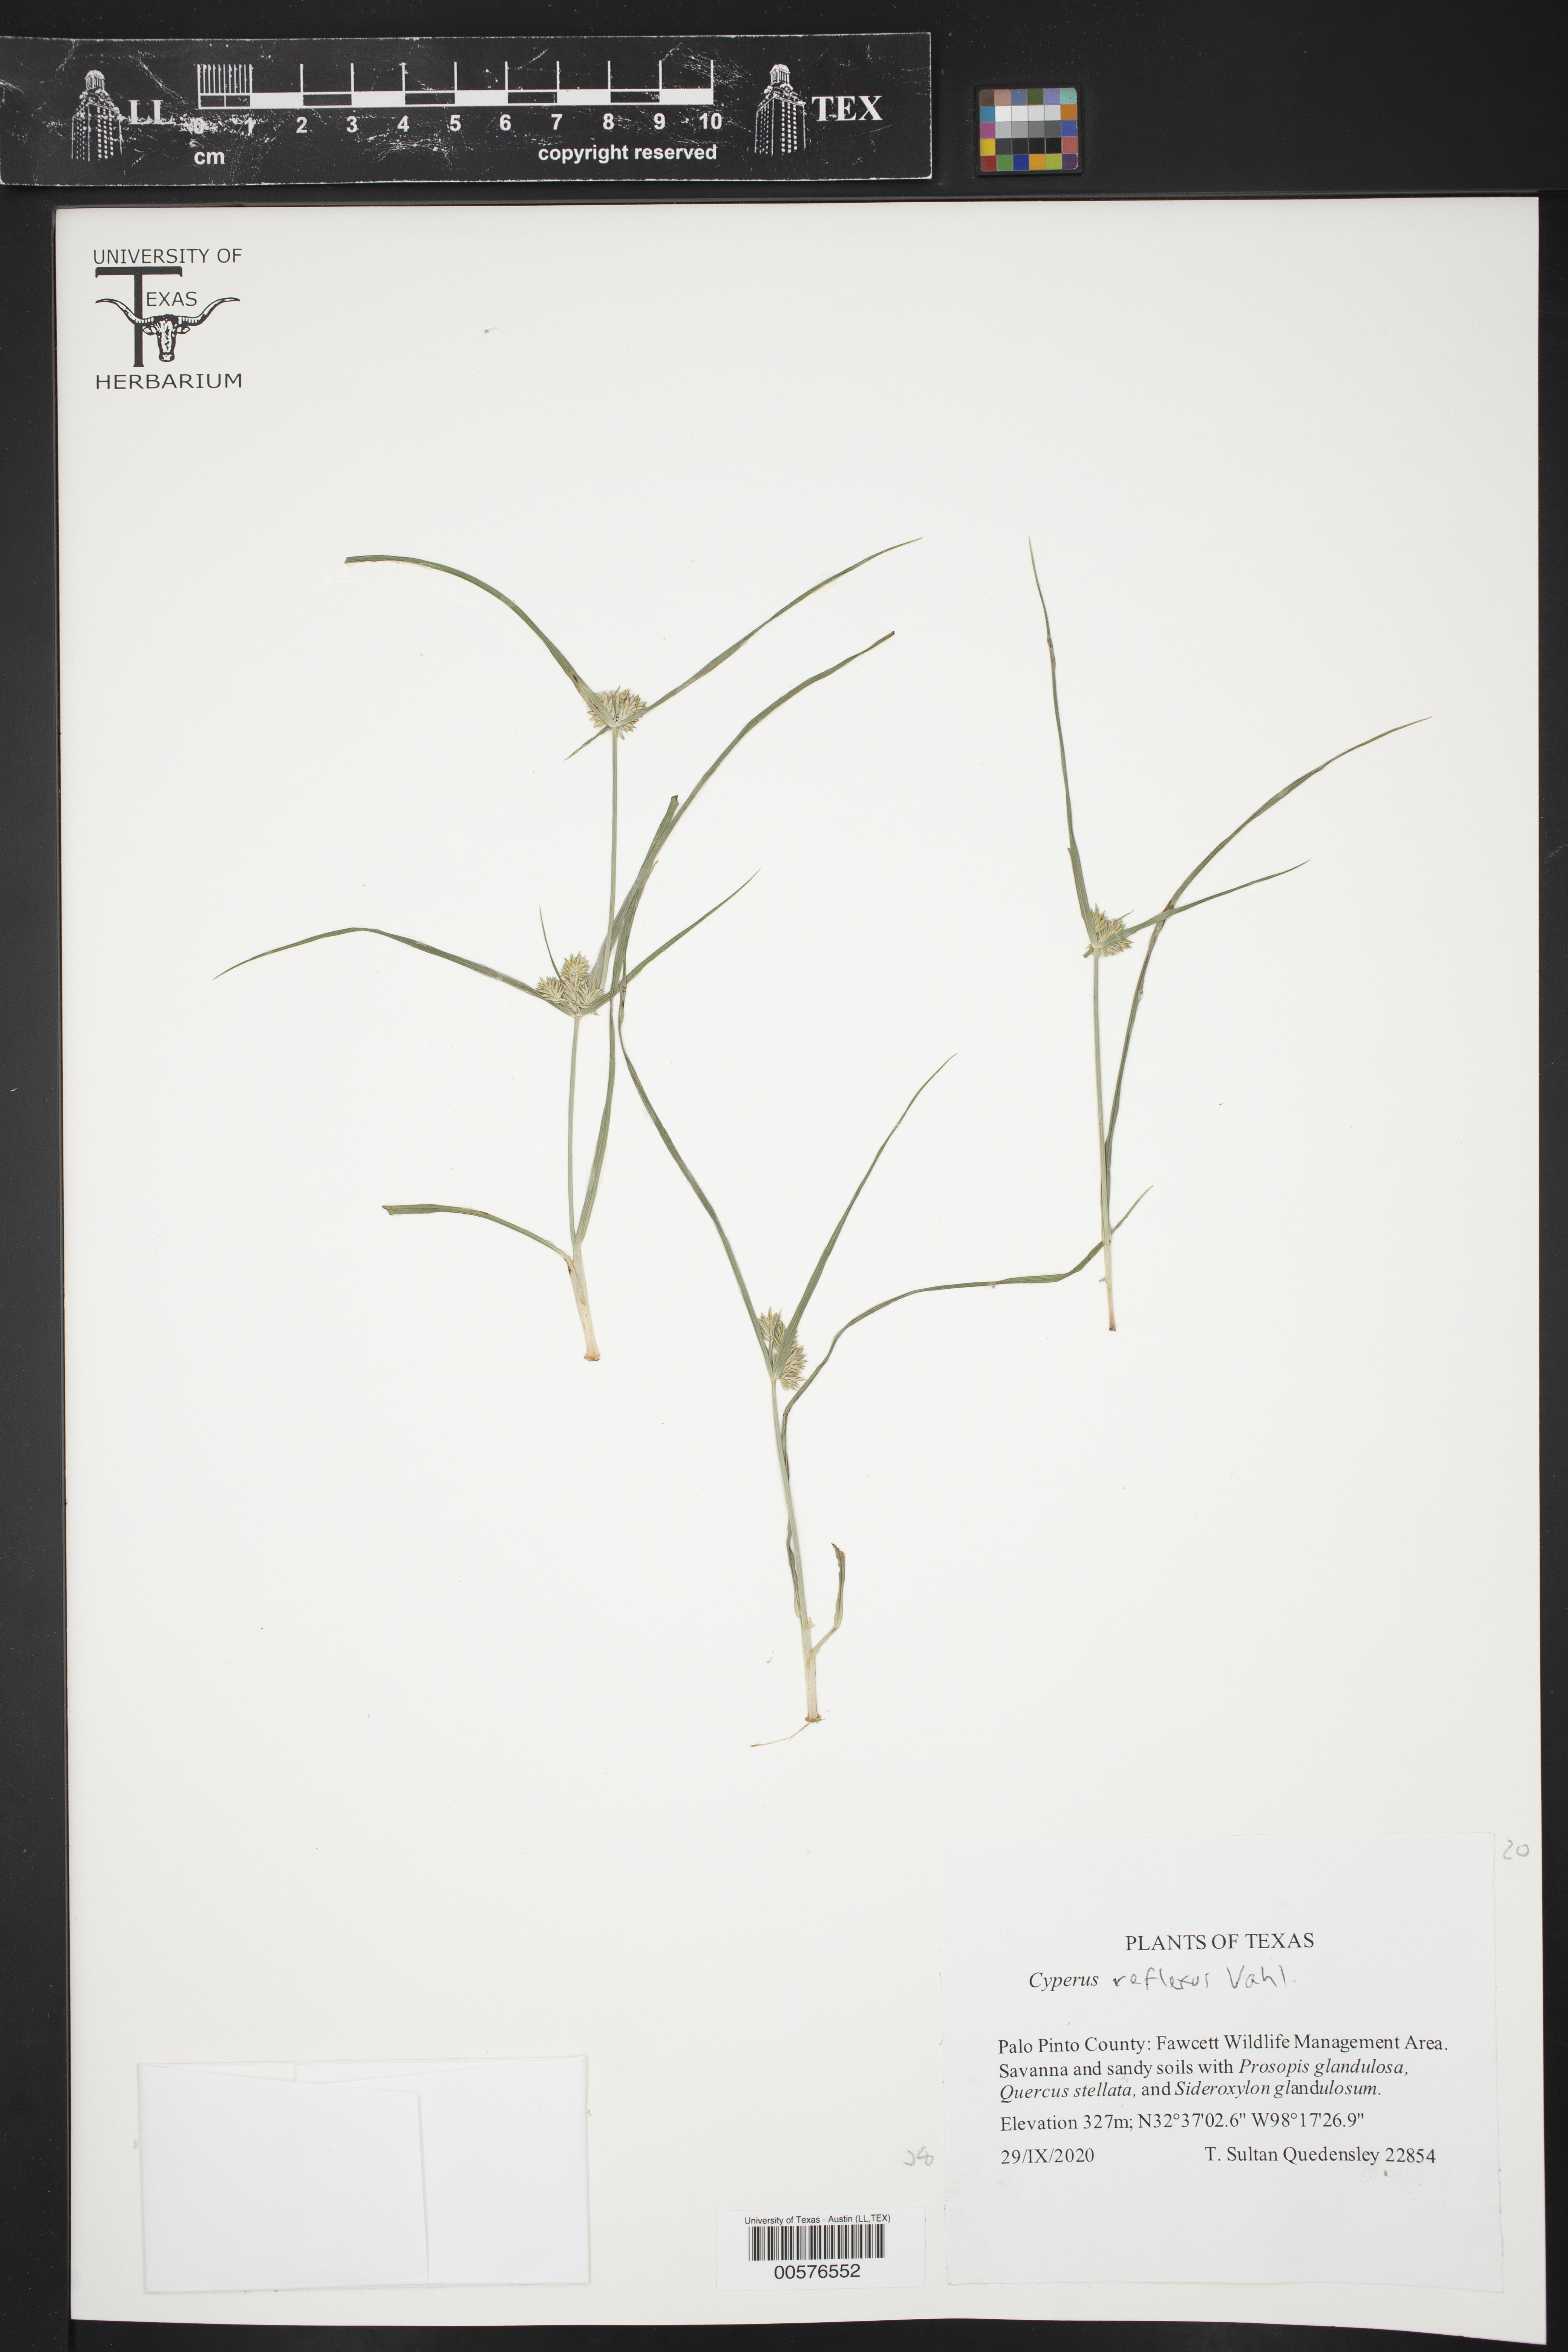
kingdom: Plantae
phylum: Tracheophyta
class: Liliopsida
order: Poales
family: Cyperaceae
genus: Cyperus
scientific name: Cyperus reflexus
